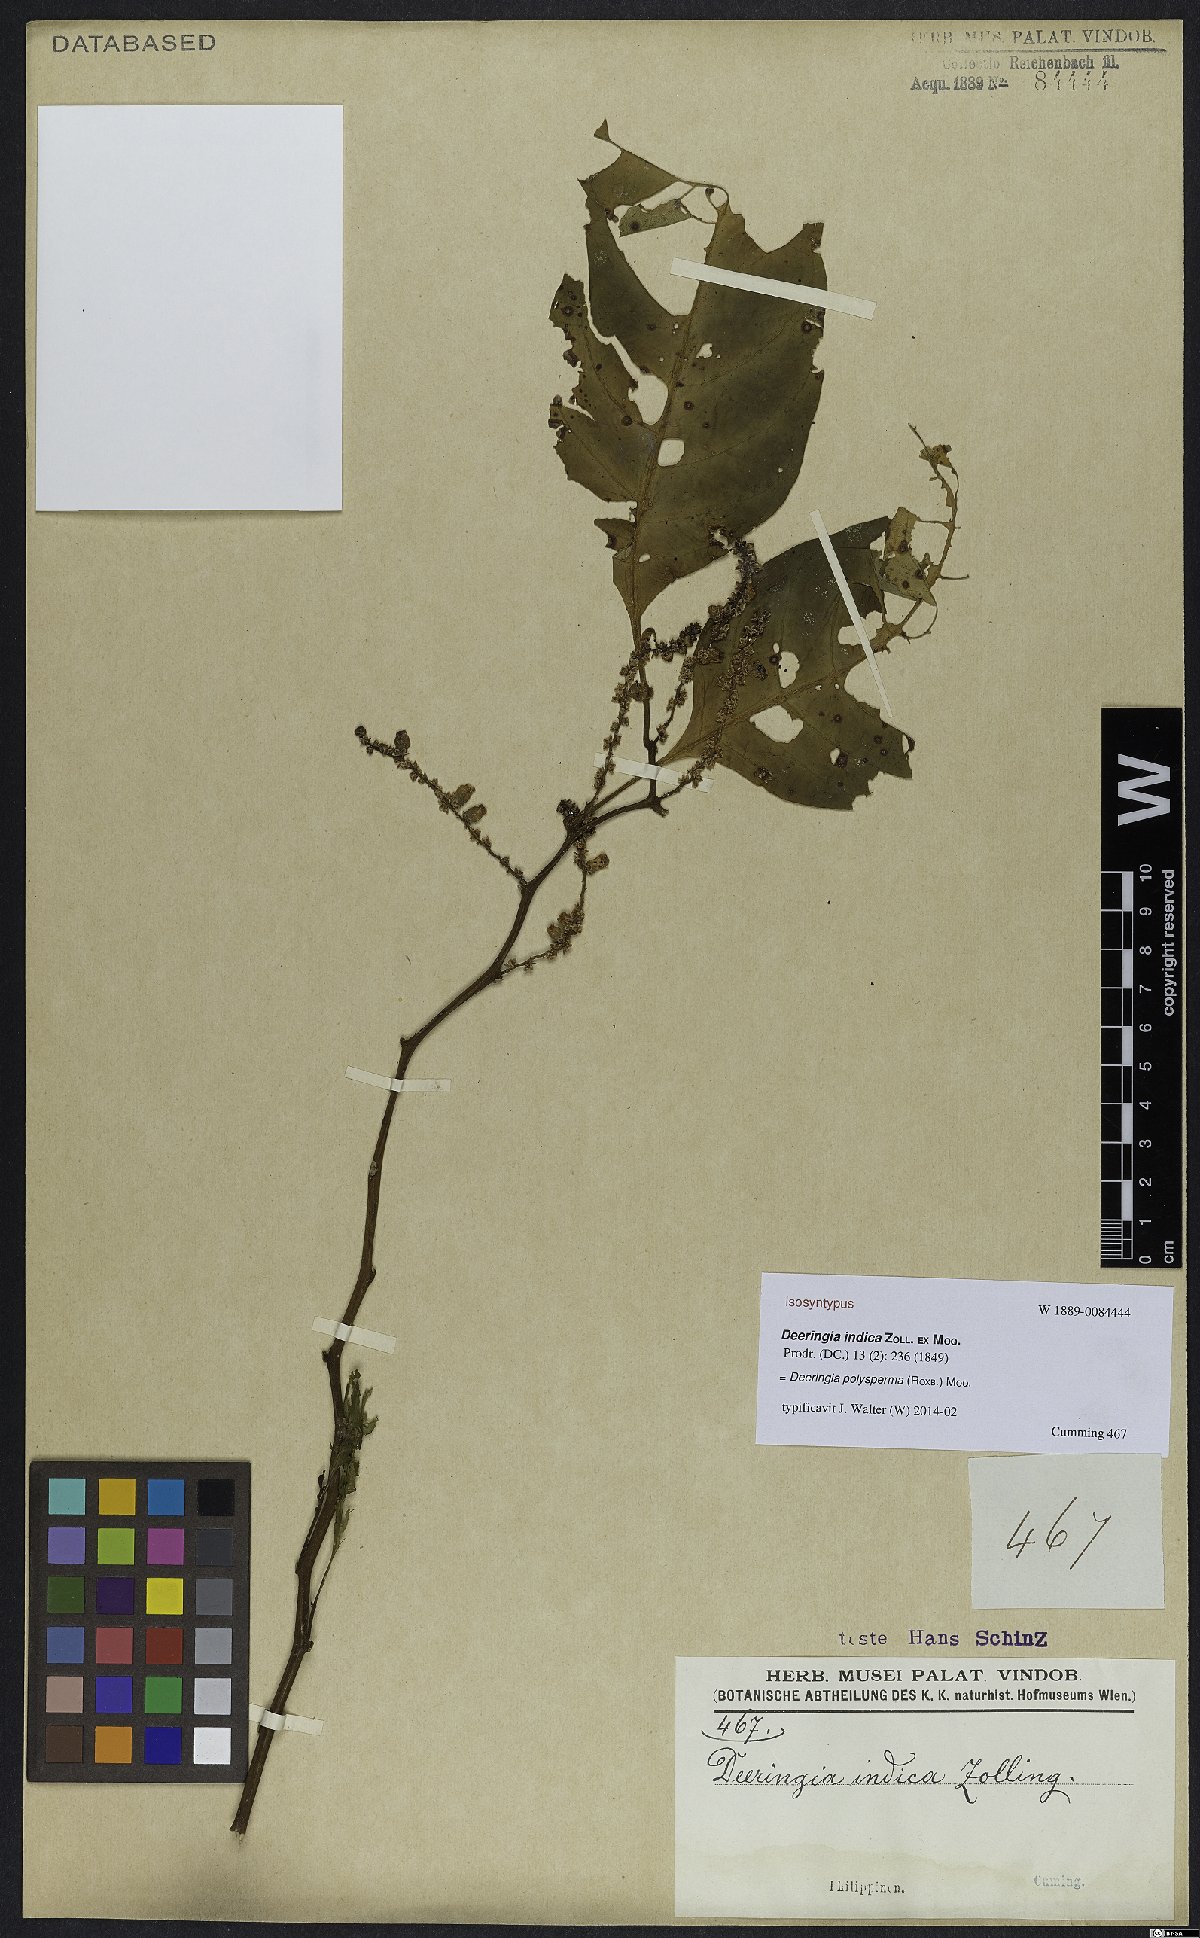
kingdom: Plantae
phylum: Tracheophyta
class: Magnoliopsida
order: Caryophyllales
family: Amaranthaceae
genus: Deeringia
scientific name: Deeringia polysperma
